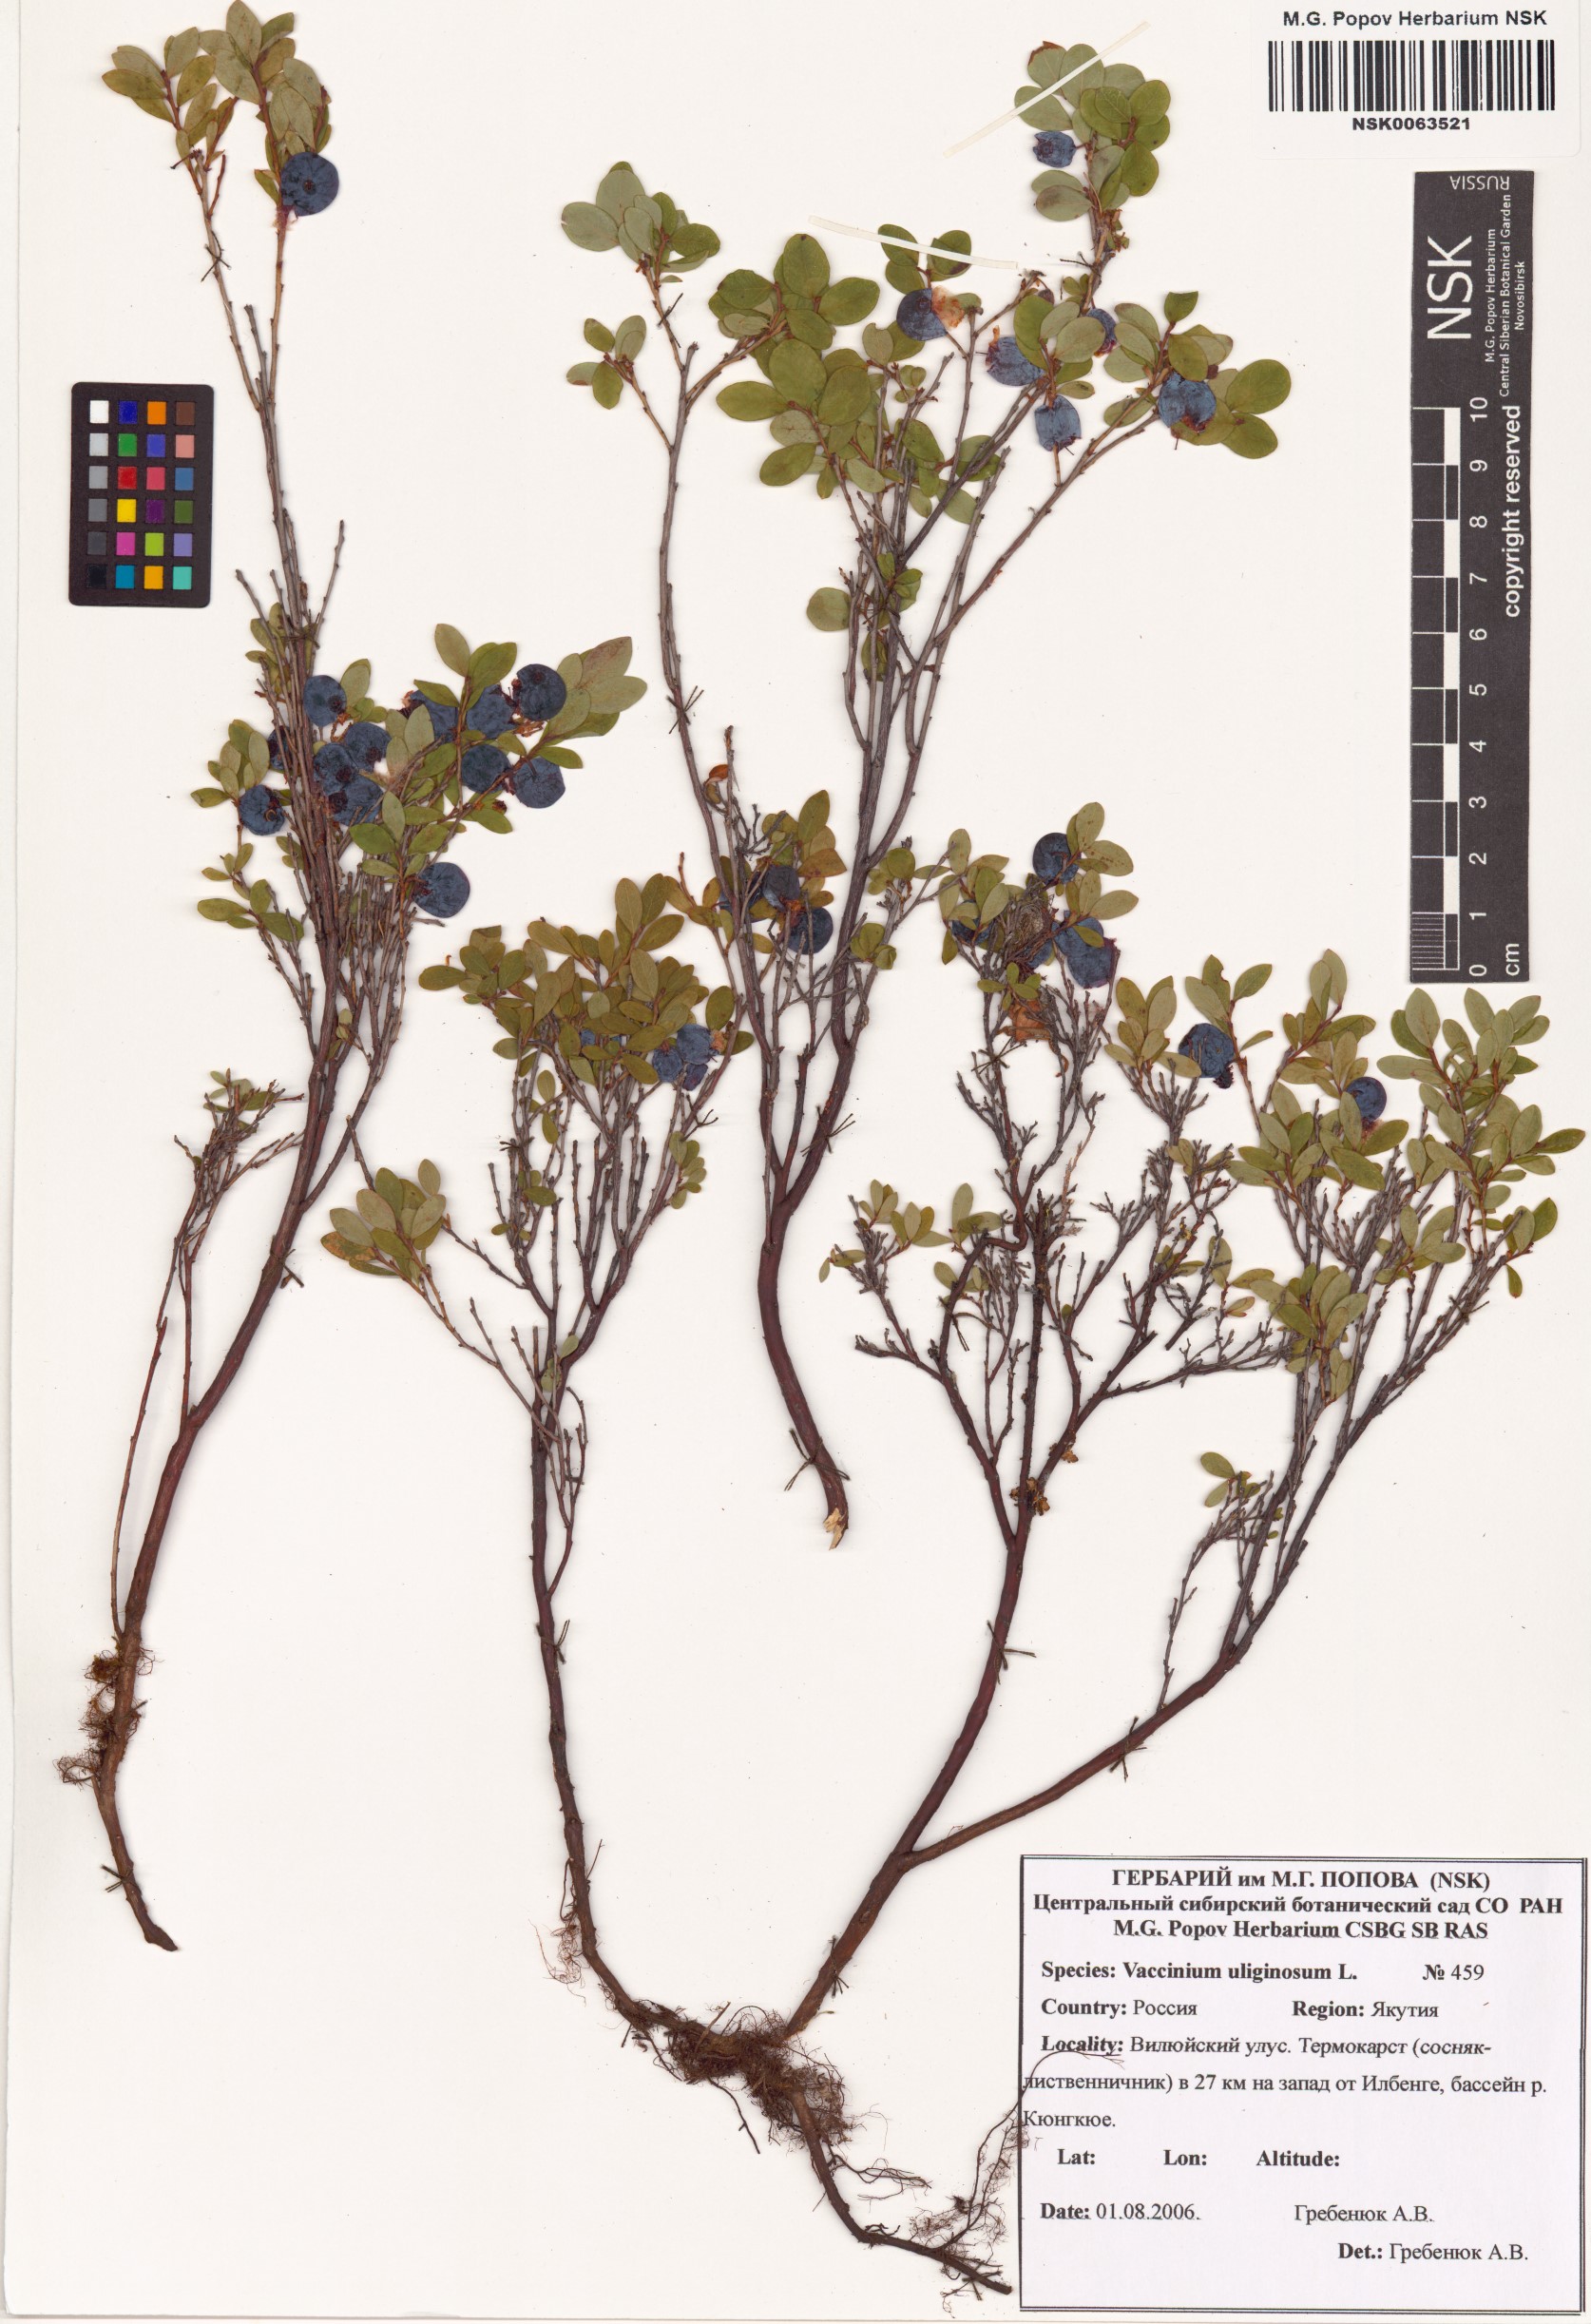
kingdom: Plantae
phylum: Tracheophyta
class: Magnoliopsida
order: Ericales
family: Ericaceae
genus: Vaccinium
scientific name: Vaccinium uliginosum
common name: Bog bilberry
